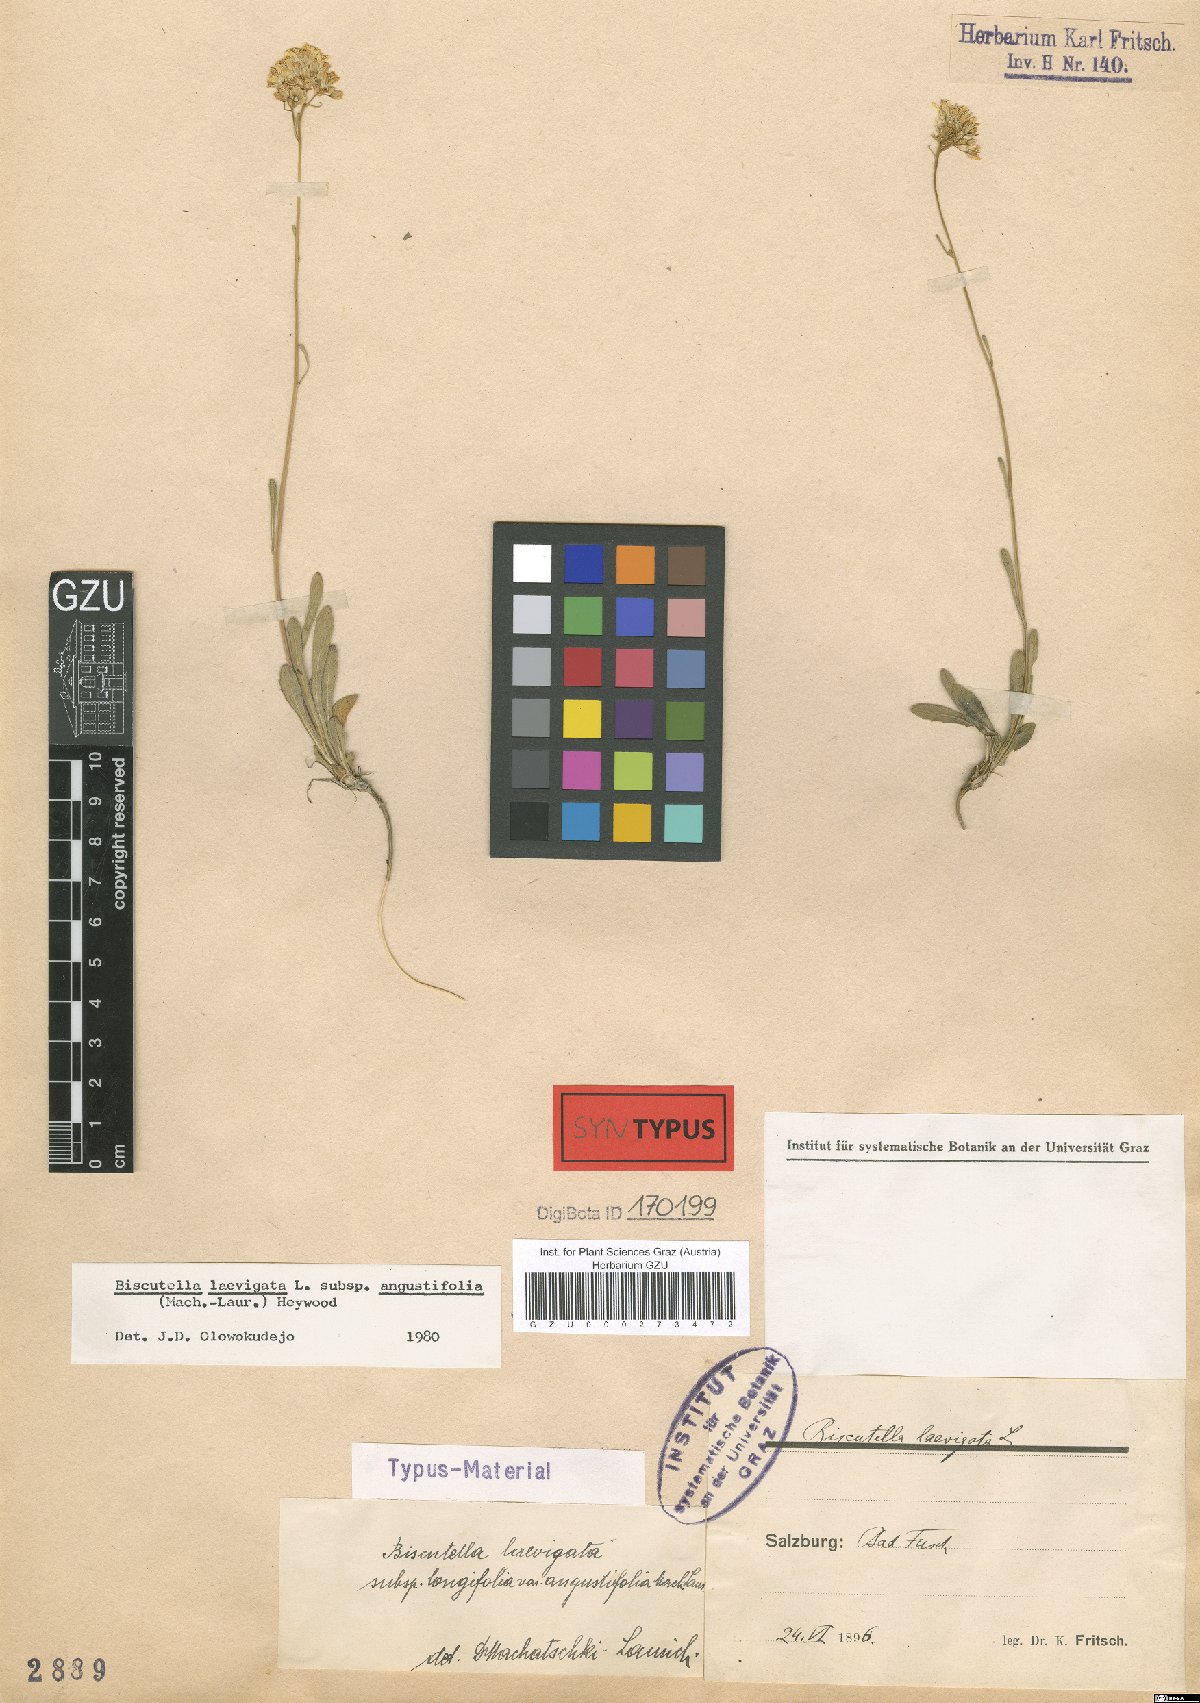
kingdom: Plantae
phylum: Tracheophyta
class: Magnoliopsida
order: Brassicales
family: Brassicaceae
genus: Biscutella
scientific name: Biscutella laevigata
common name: Buckler mustard
